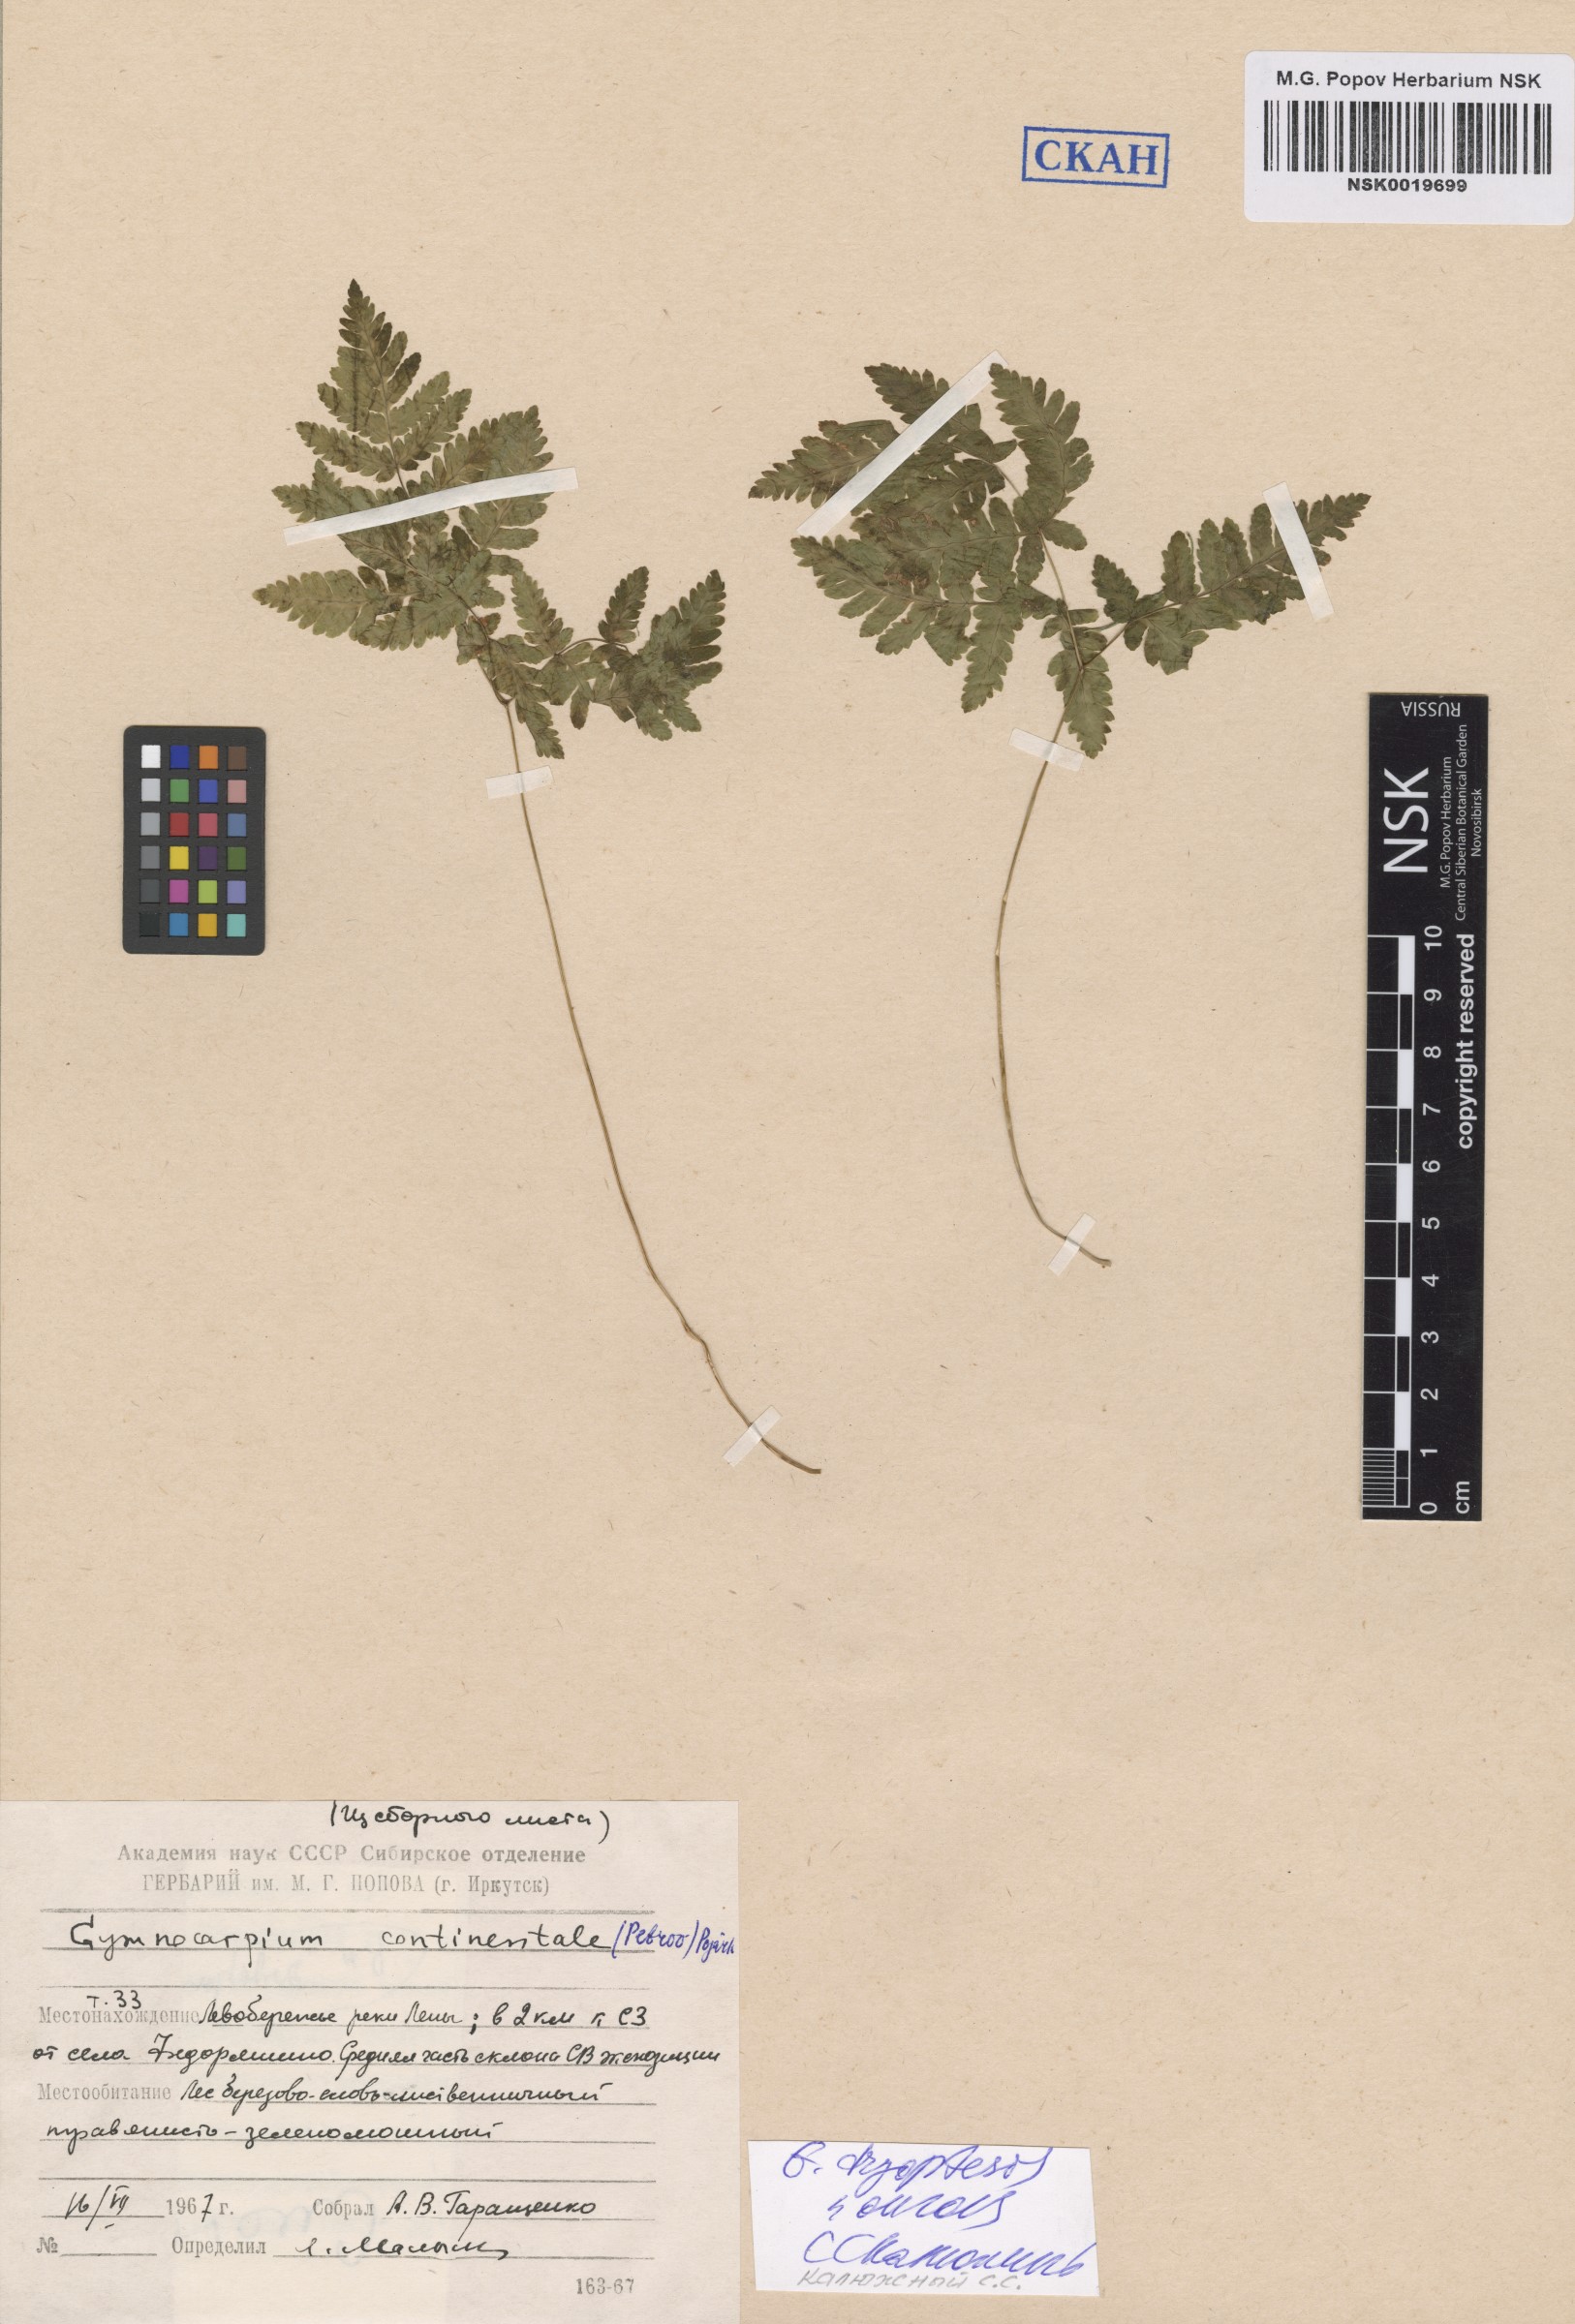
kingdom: Plantae
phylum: Tracheophyta
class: Polypodiopsida
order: Polypodiales
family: Cystopteridaceae
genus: Gymnocarpium
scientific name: Gymnocarpium dryopteris
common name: Oak fern
